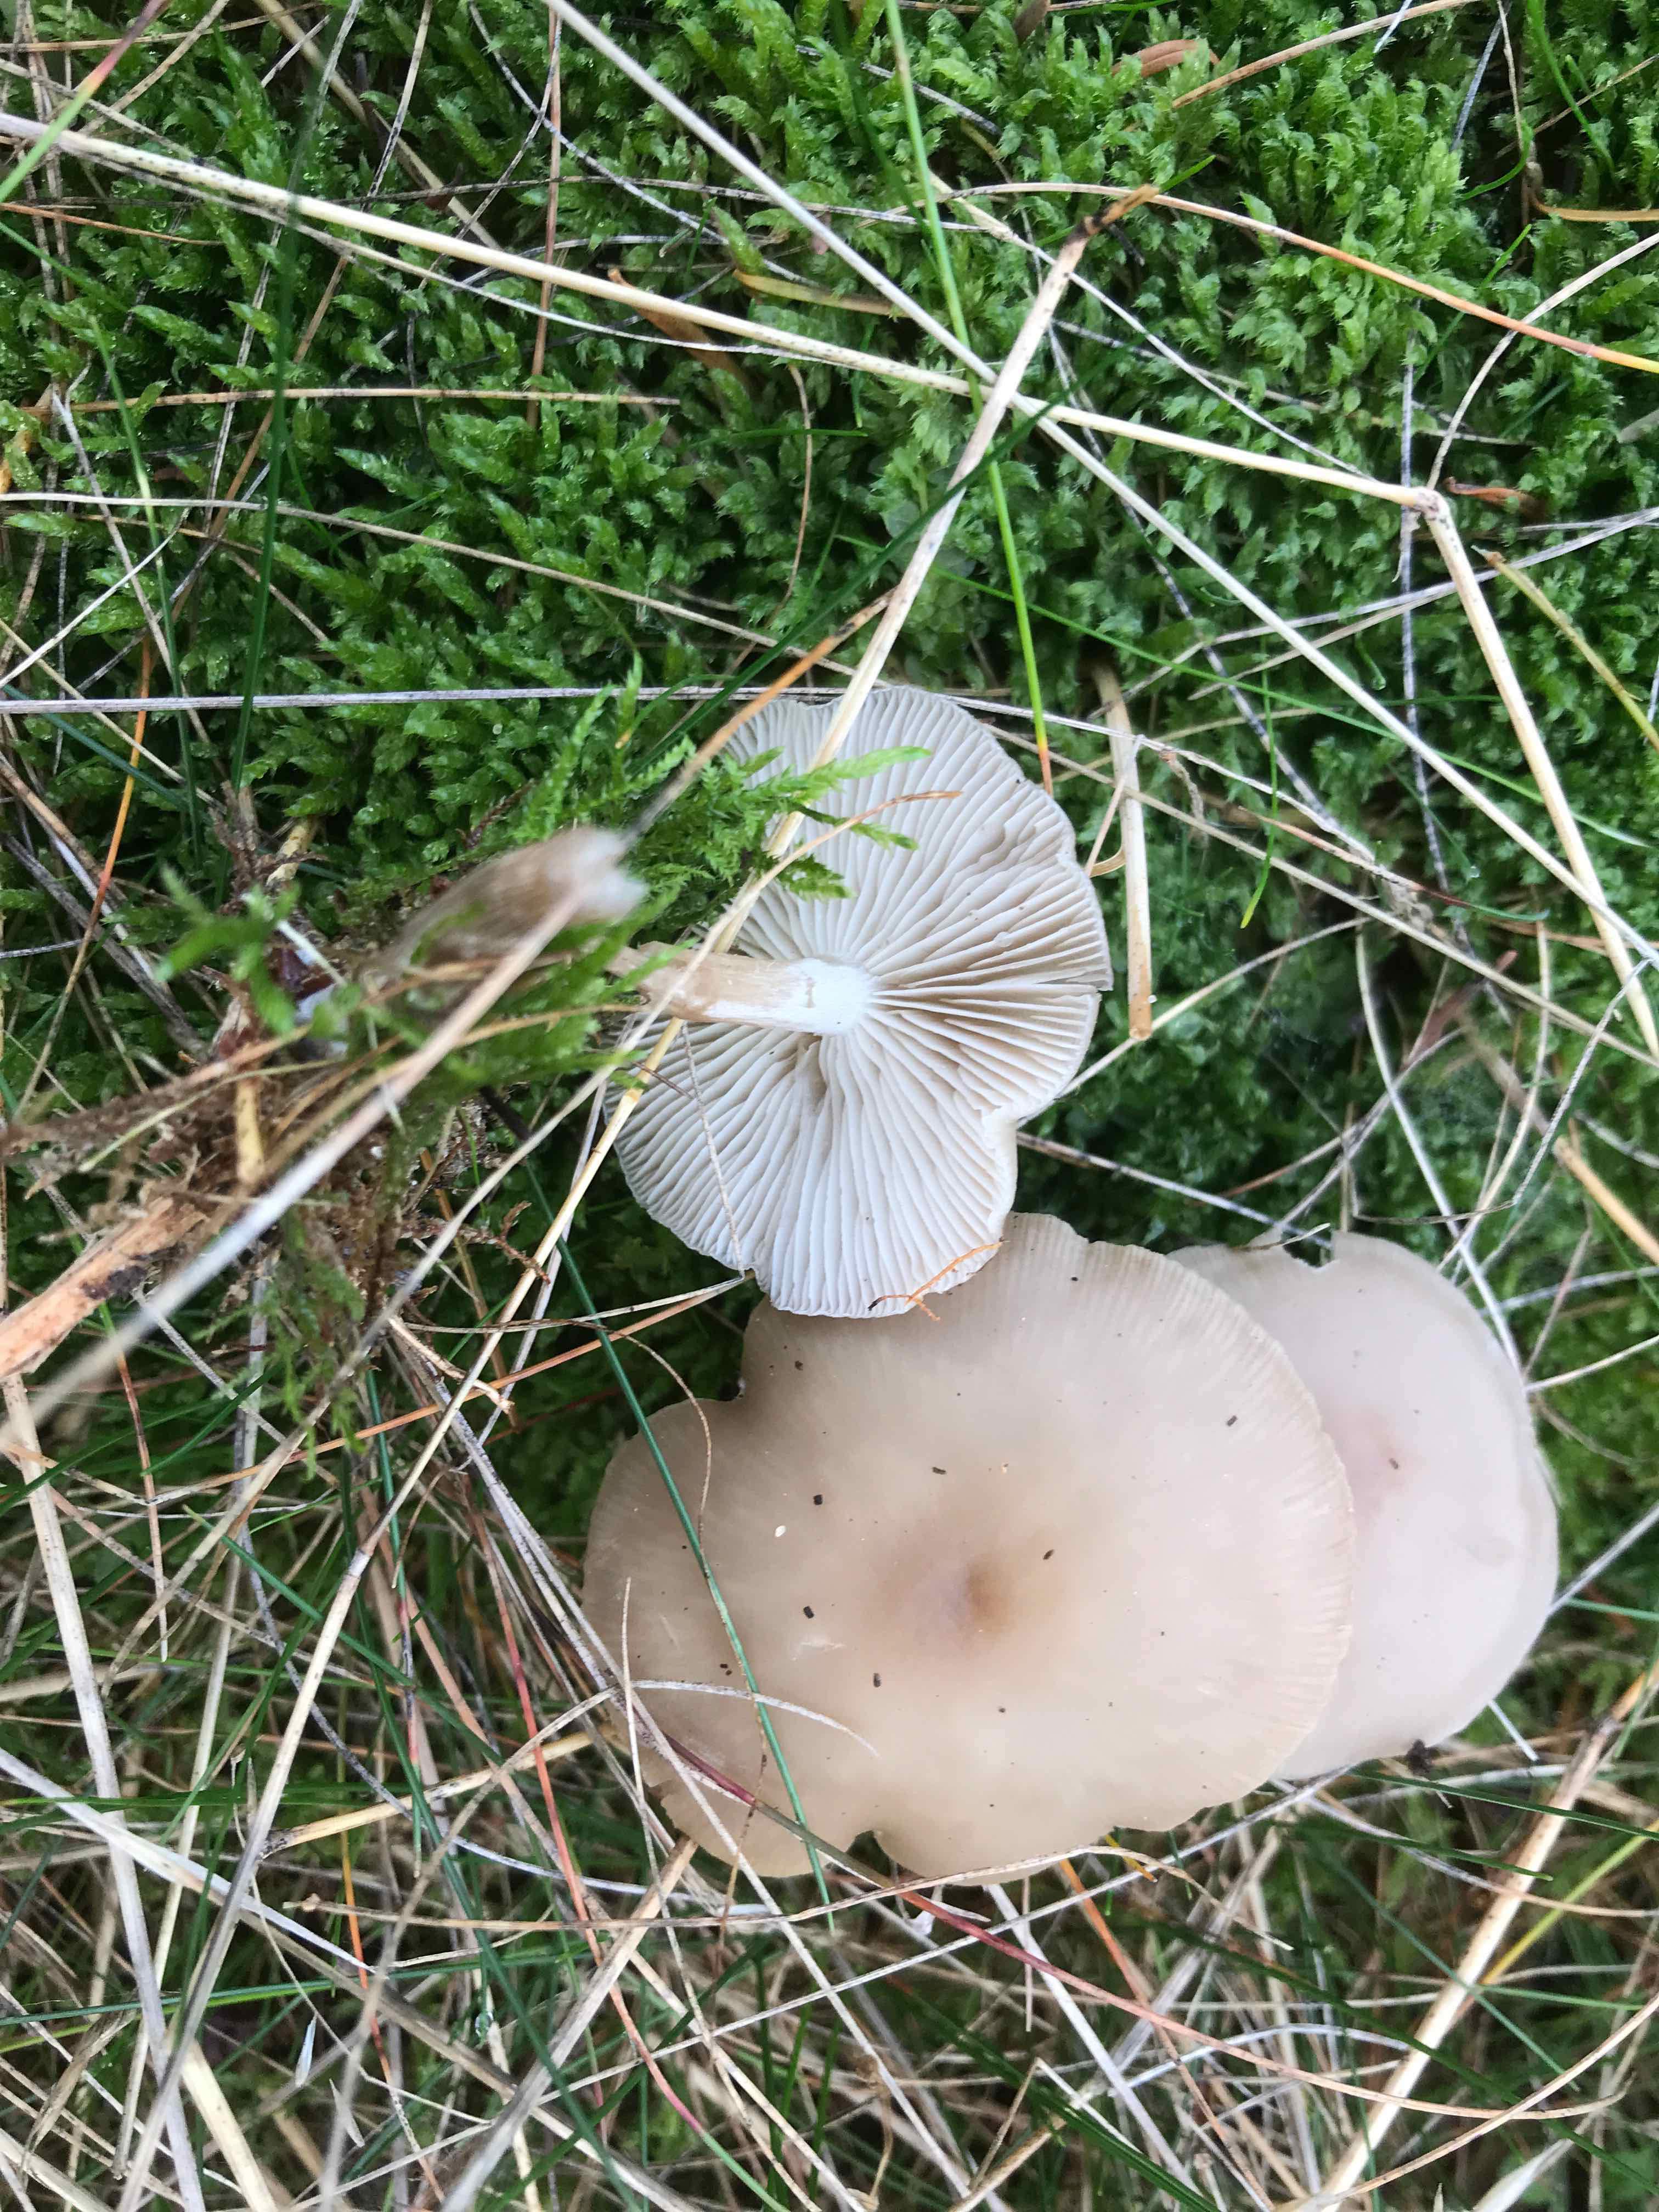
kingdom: Fungi
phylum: Basidiomycota
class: Agaricomycetes
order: Agaricales
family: Tricholomataceae
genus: Clitocybe
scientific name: Clitocybe metachroa
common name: grå tragthat
